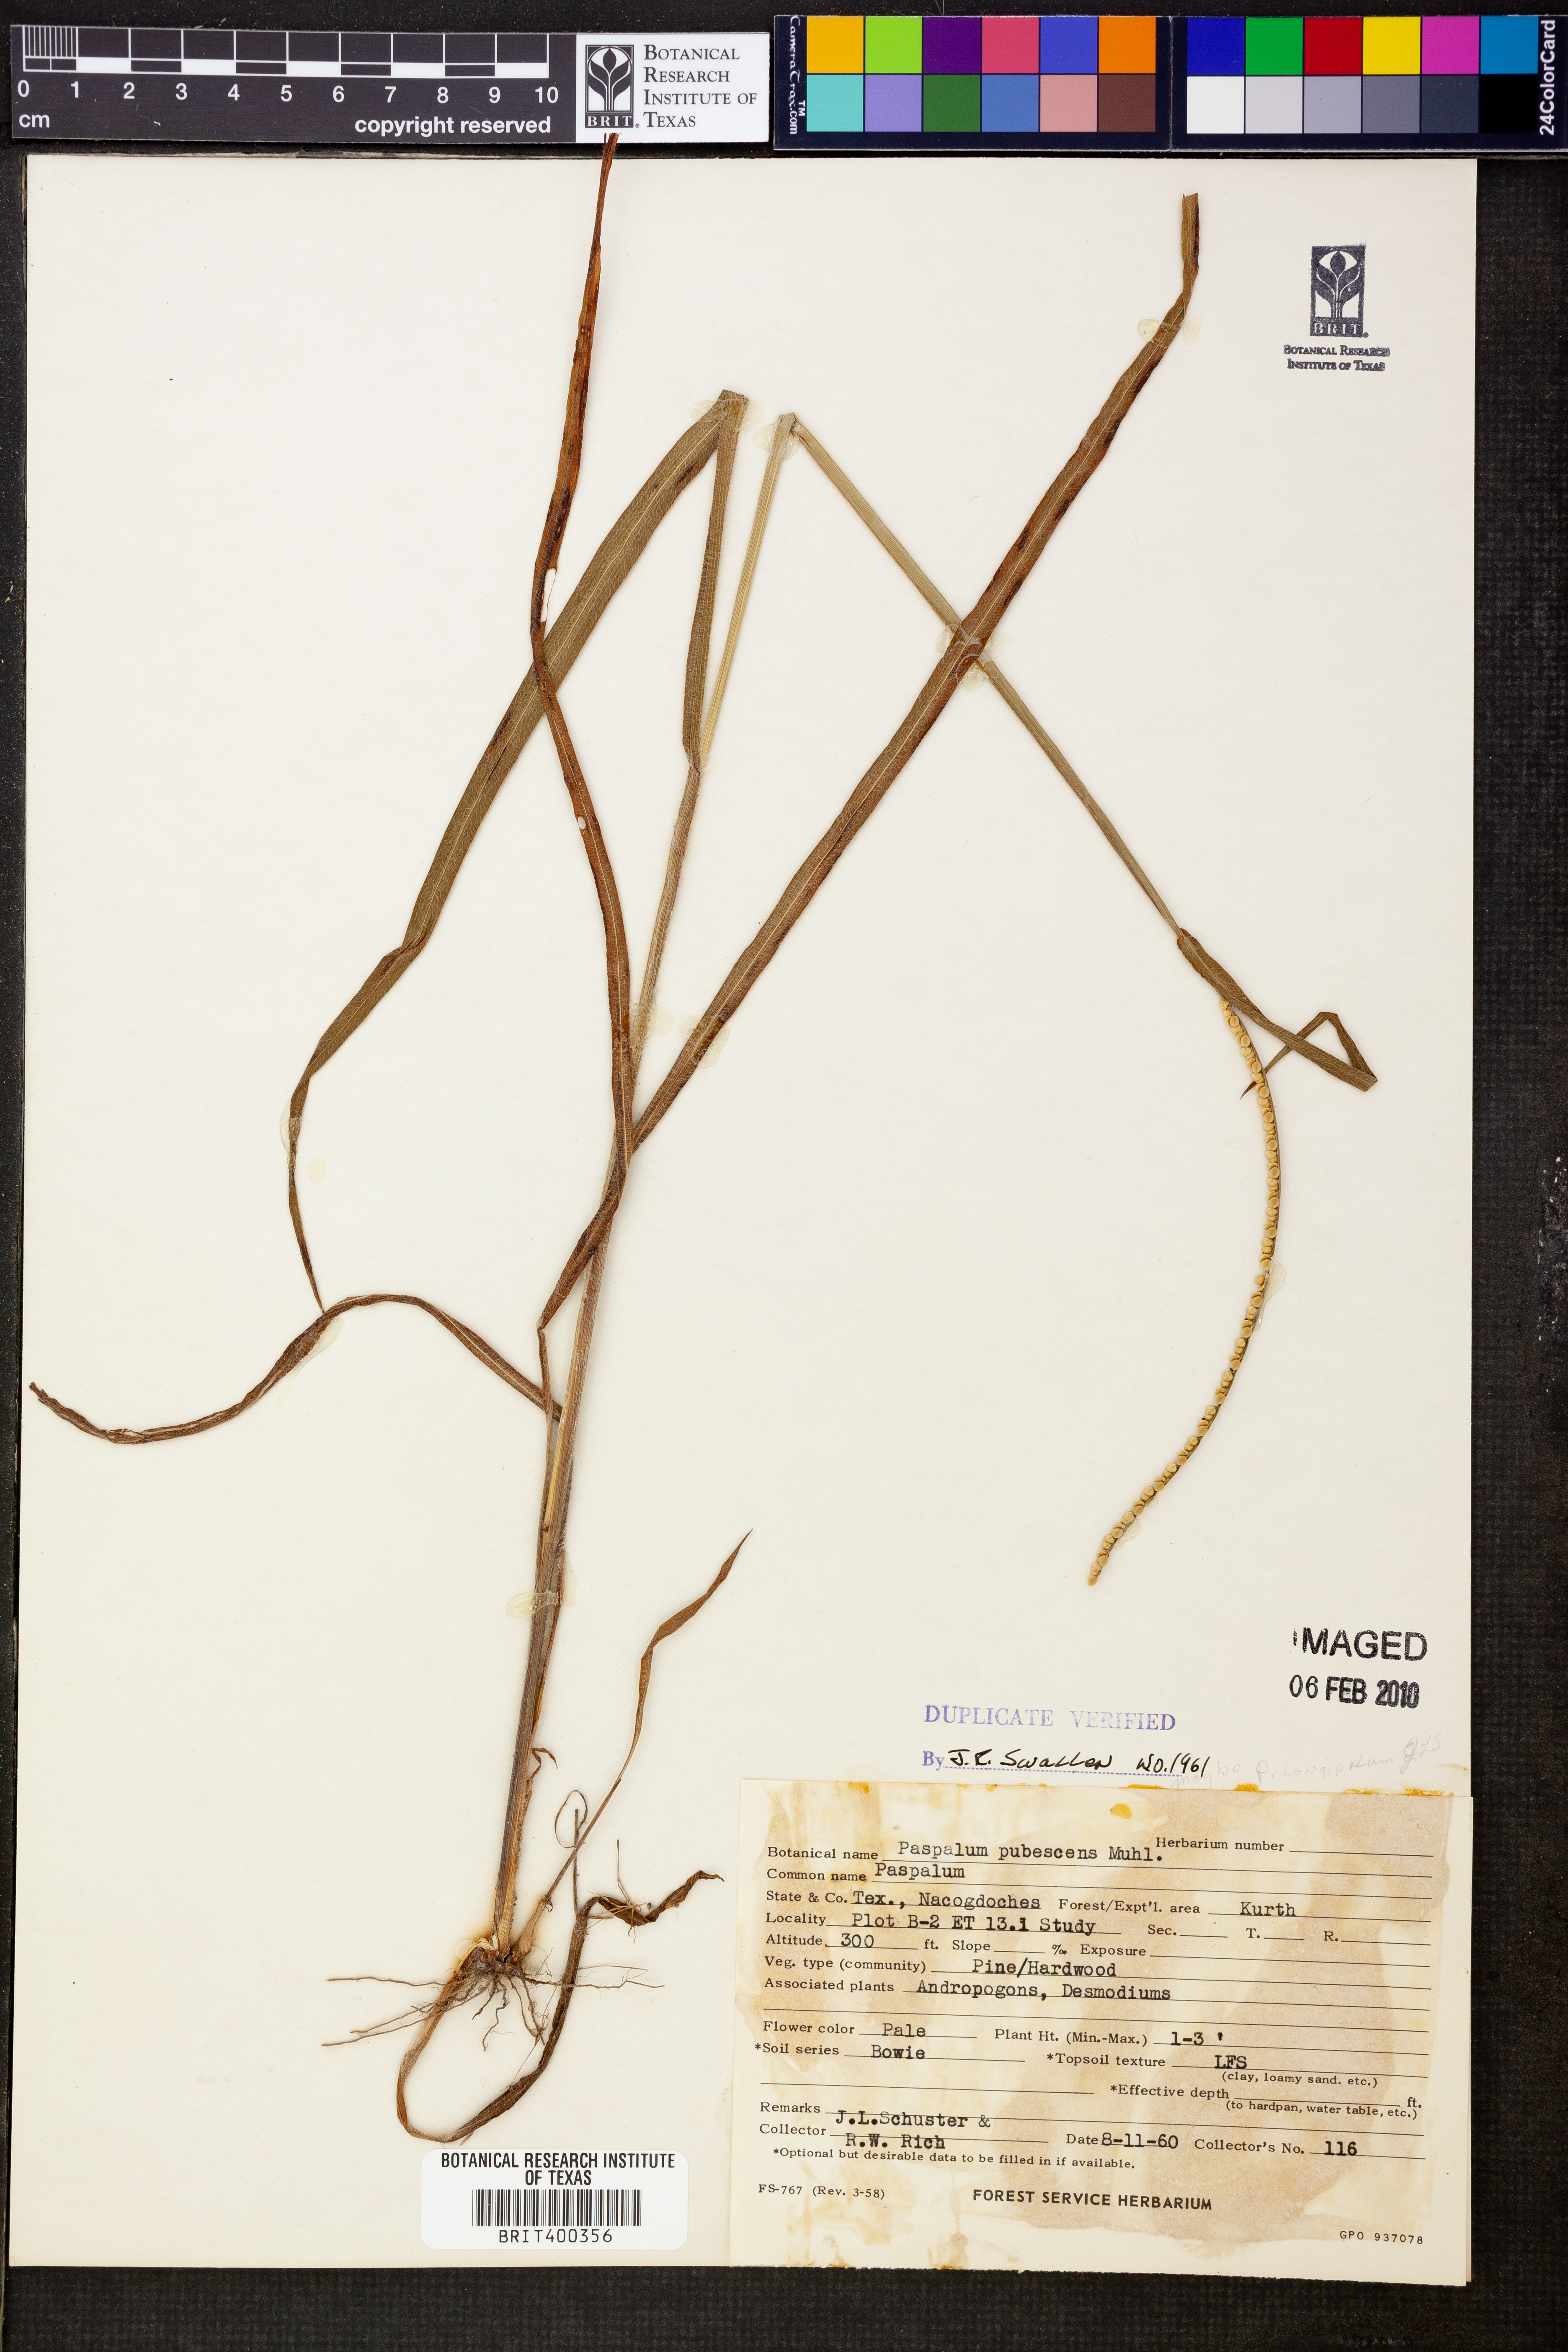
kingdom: Plantae
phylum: Tracheophyta
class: Liliopsida
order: Poales
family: Poaceae
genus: Paspalum
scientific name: Paspalum setaceum
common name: Slender paspalum
